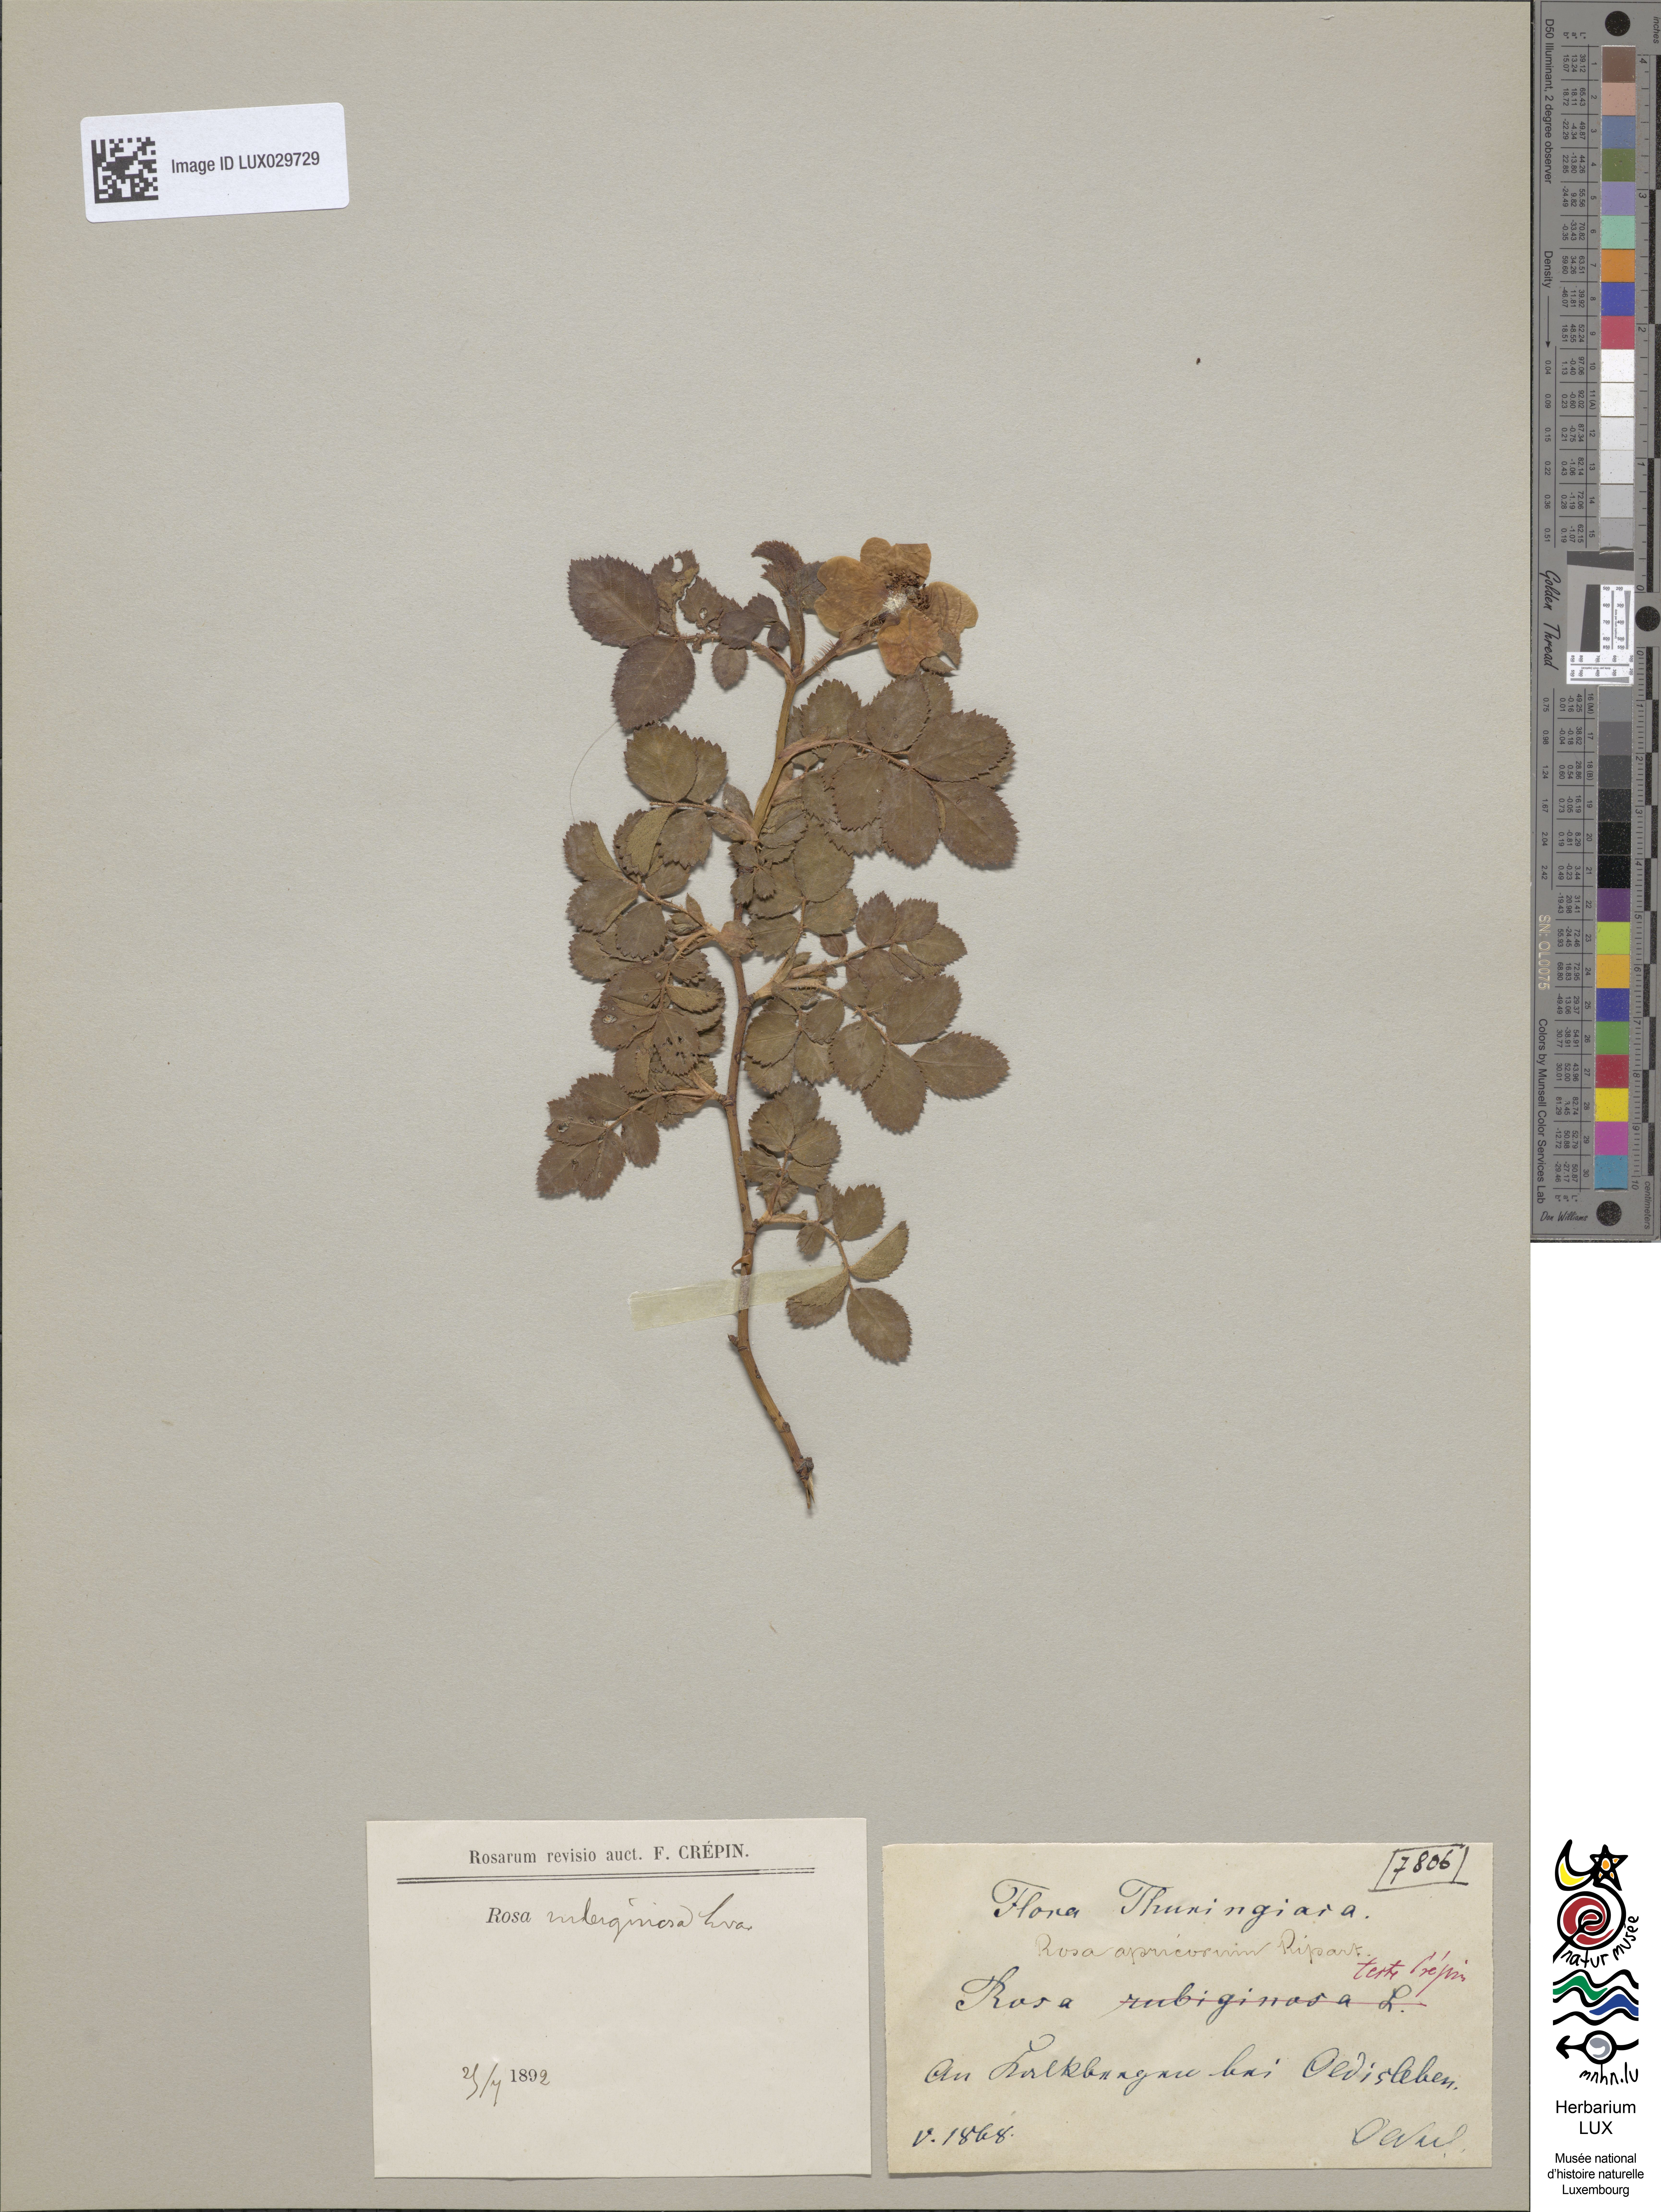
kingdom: Plantae
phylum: Tracheophyta
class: Magnoliopsida
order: Rosales
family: Rosaceae
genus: Rosa
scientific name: Rosa apricorum
